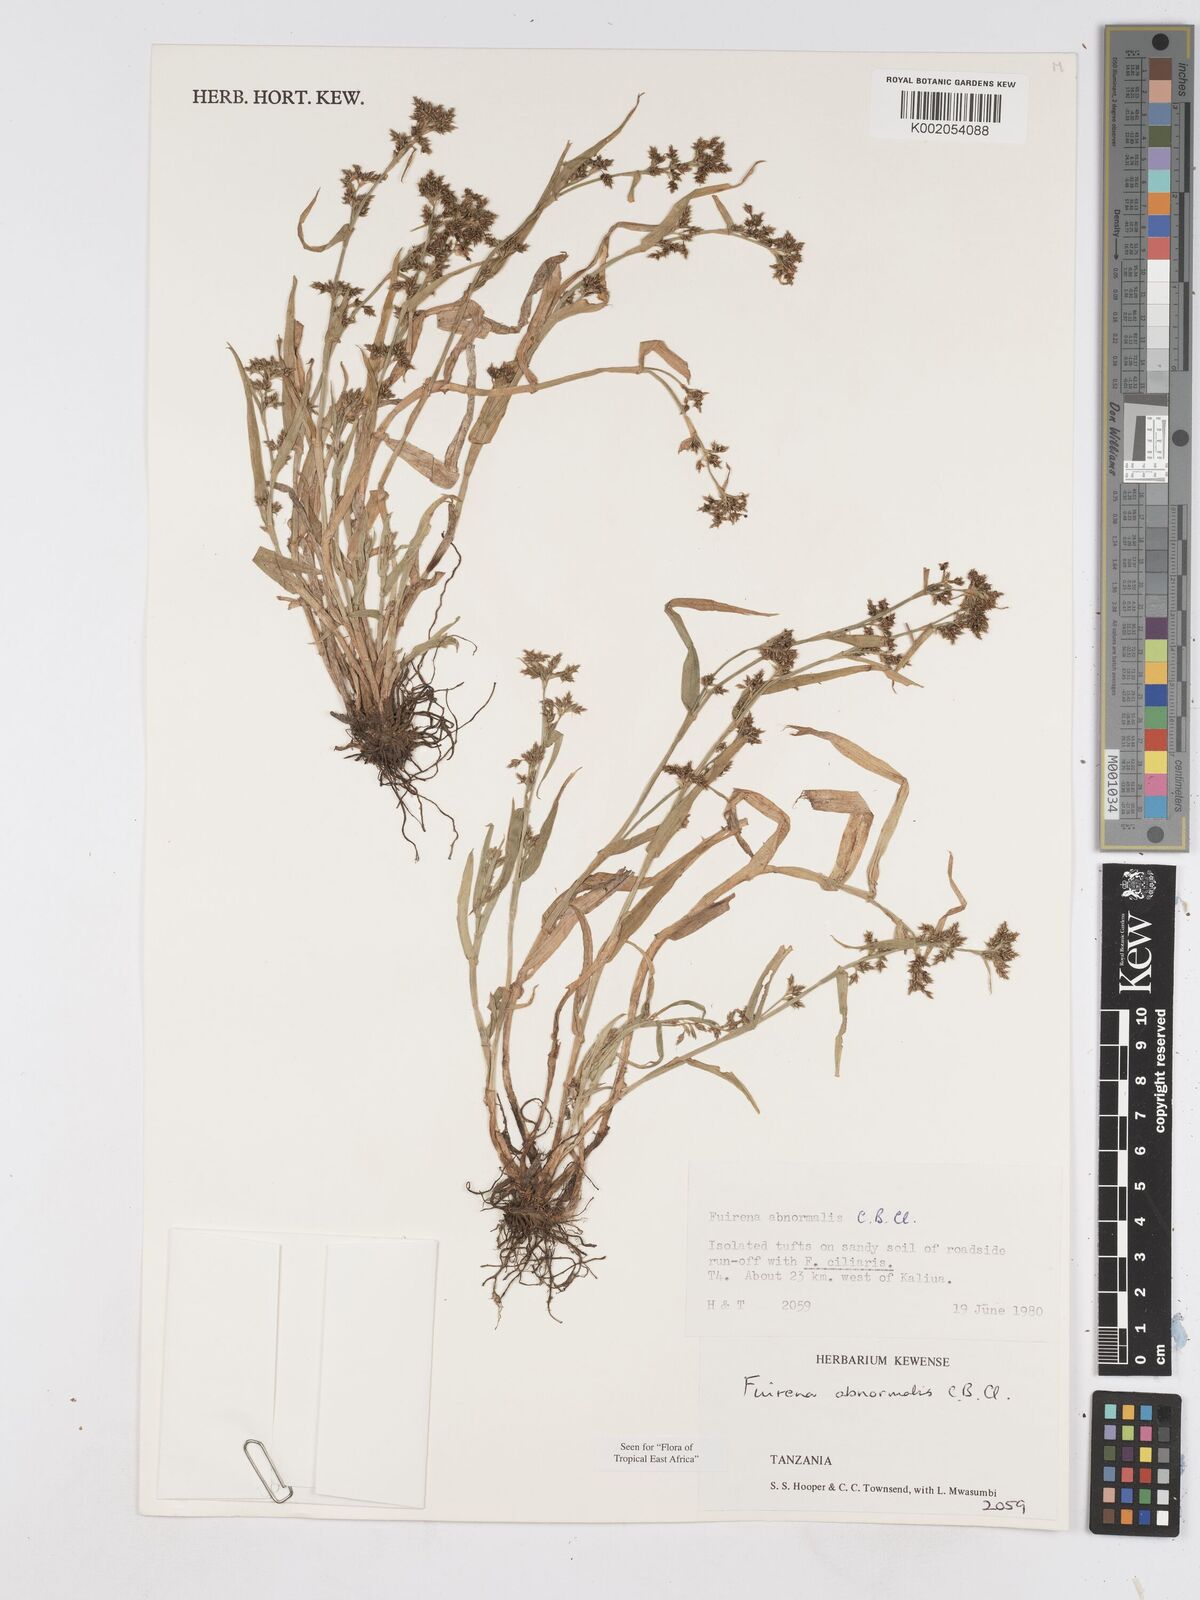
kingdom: Plantae
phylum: Tracheophyta
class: Liliopsida
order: Poales
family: Cyperaceae
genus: Fuirena
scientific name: Fuirena abnormalis
